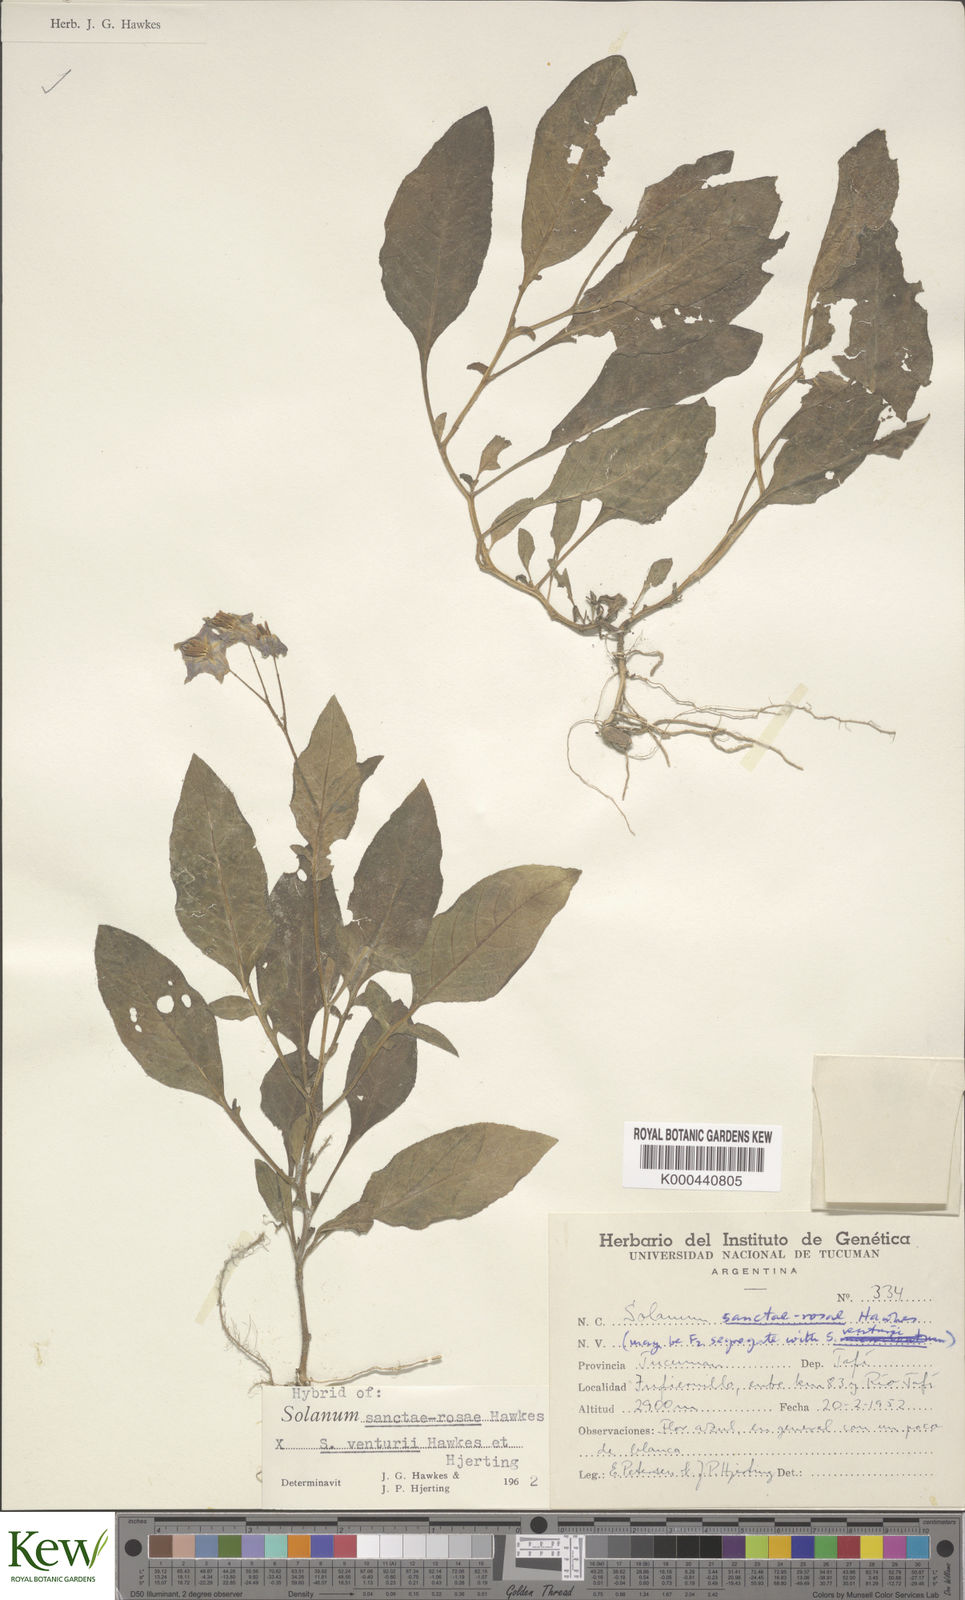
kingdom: Plantae
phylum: Tracheophyta
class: Magnoliopsida
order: Solanales
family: Solanaceae
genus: Solanum
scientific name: Solanum boliviense
